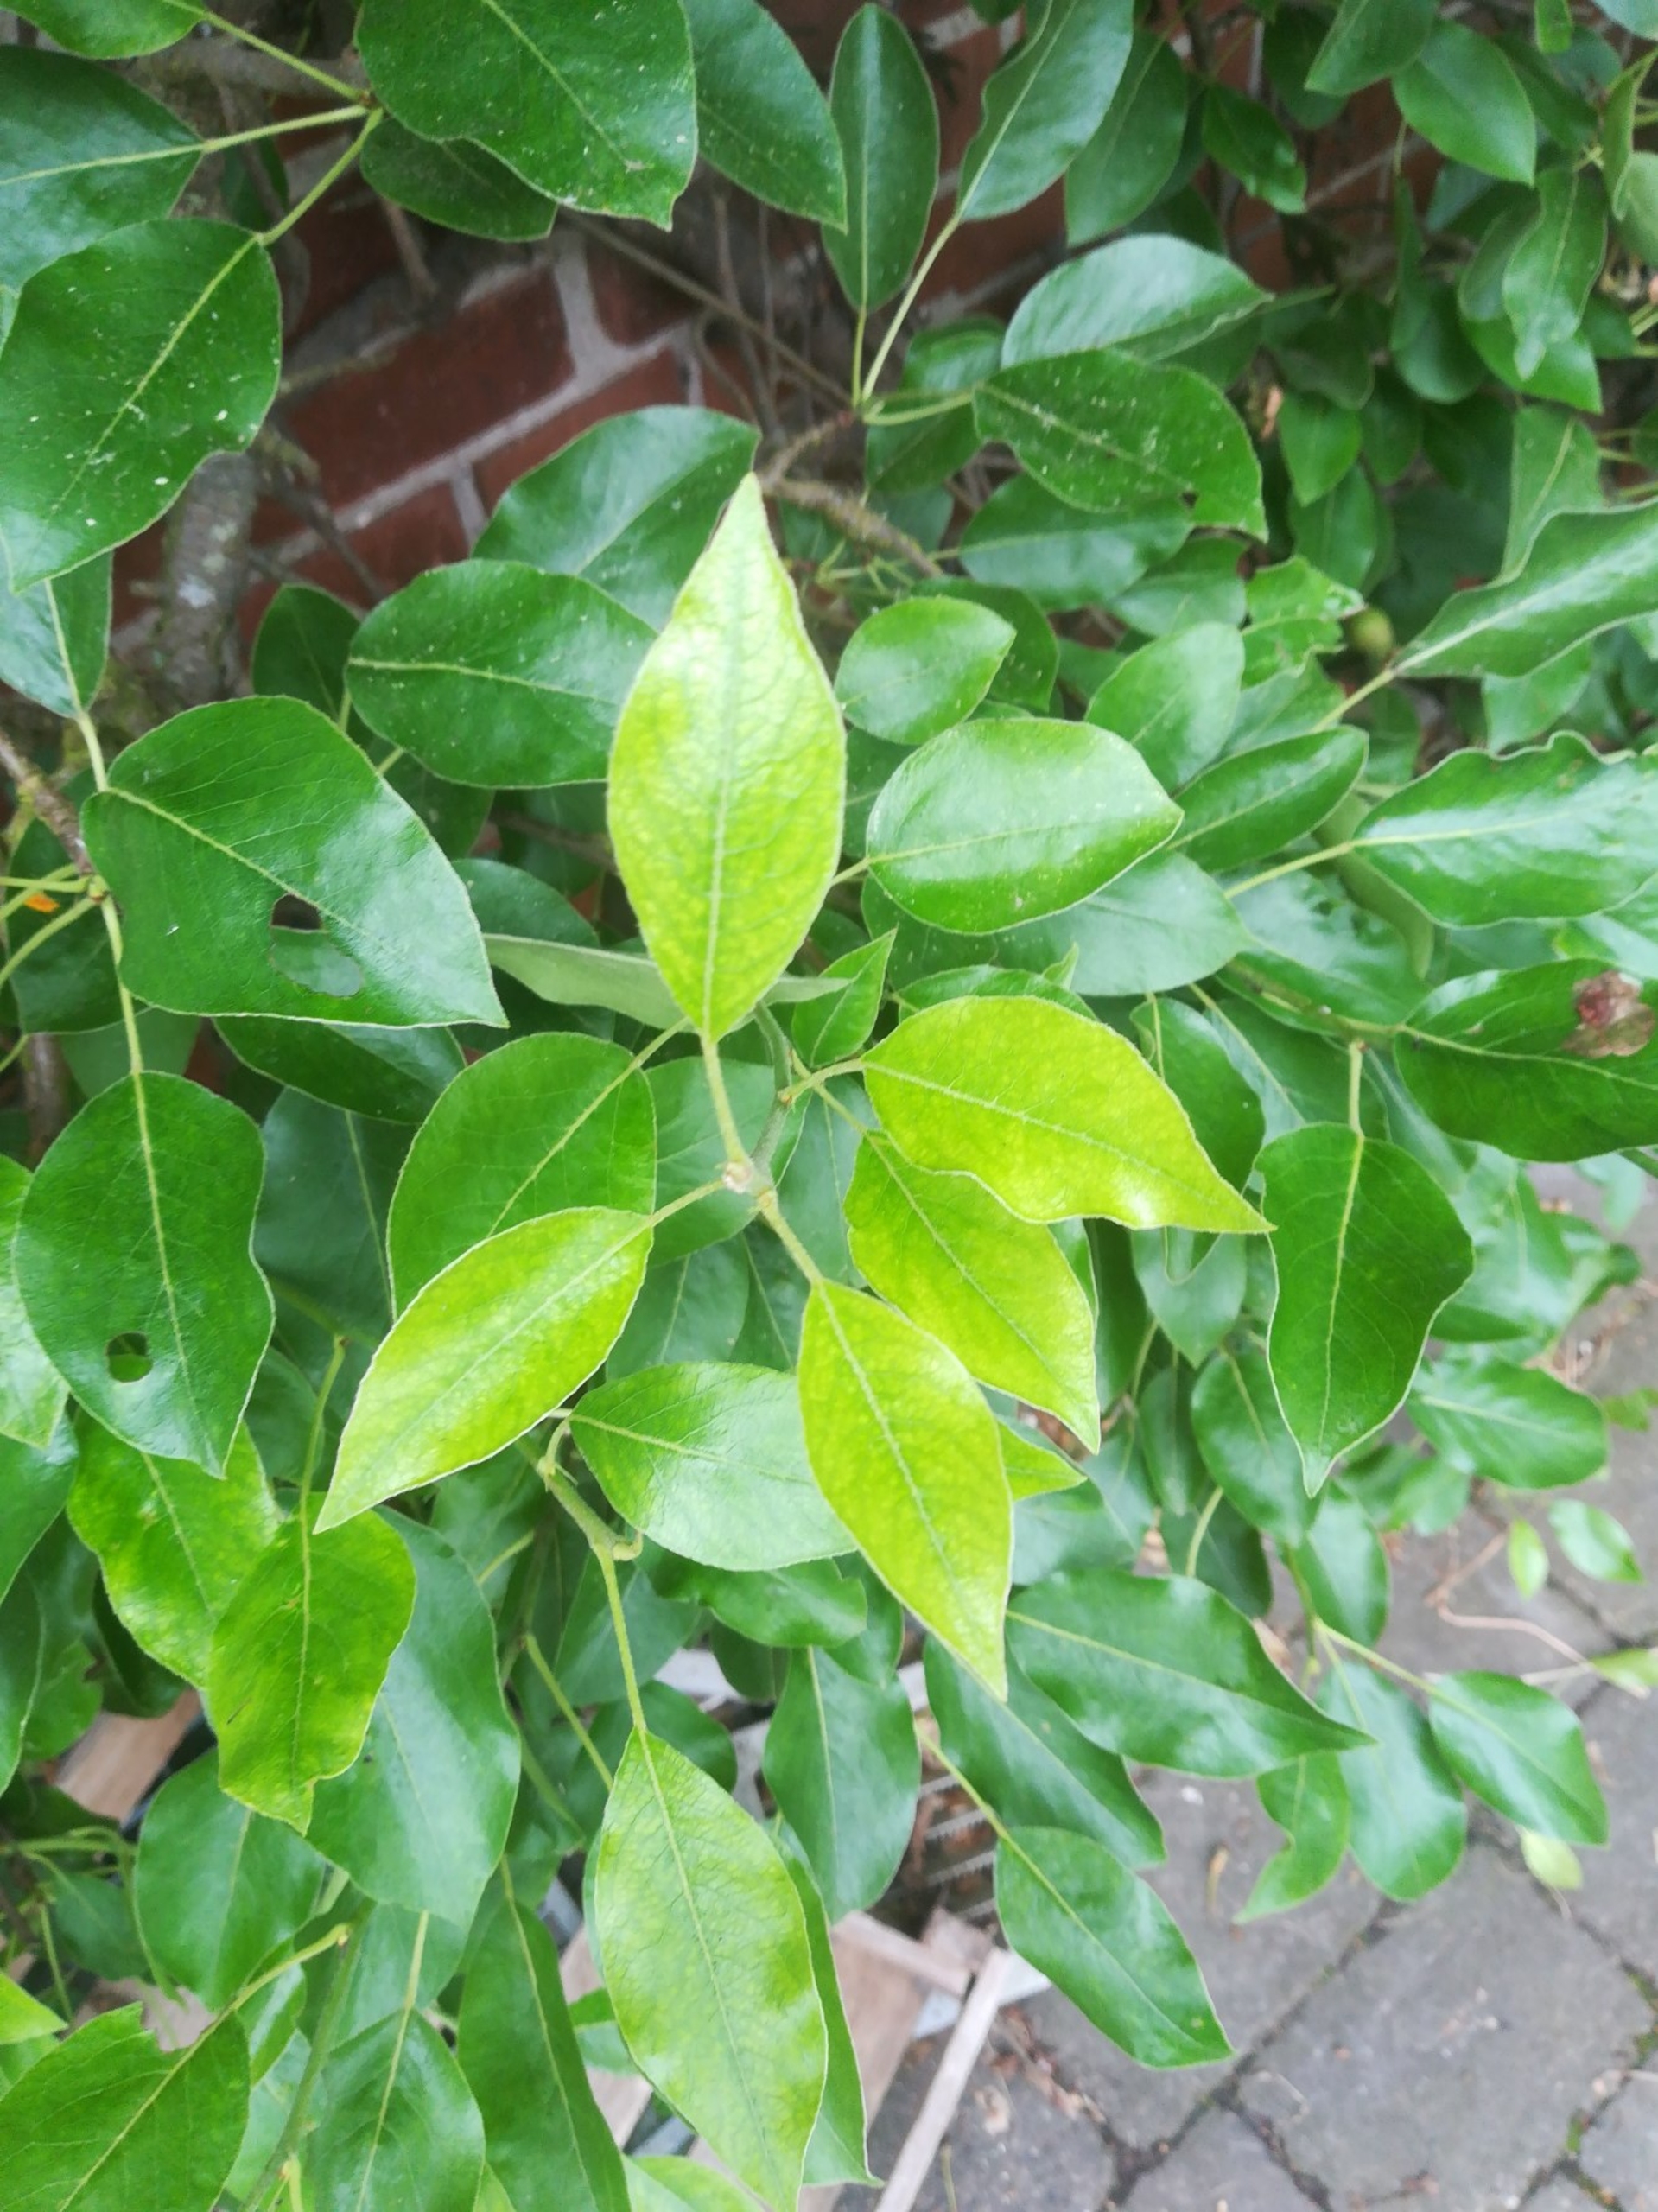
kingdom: Plantae
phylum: Tracheophyta
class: Magnoliopsida
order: Rosales
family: Rosaceae
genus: Pyrus
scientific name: Pyrus communis
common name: Pære
